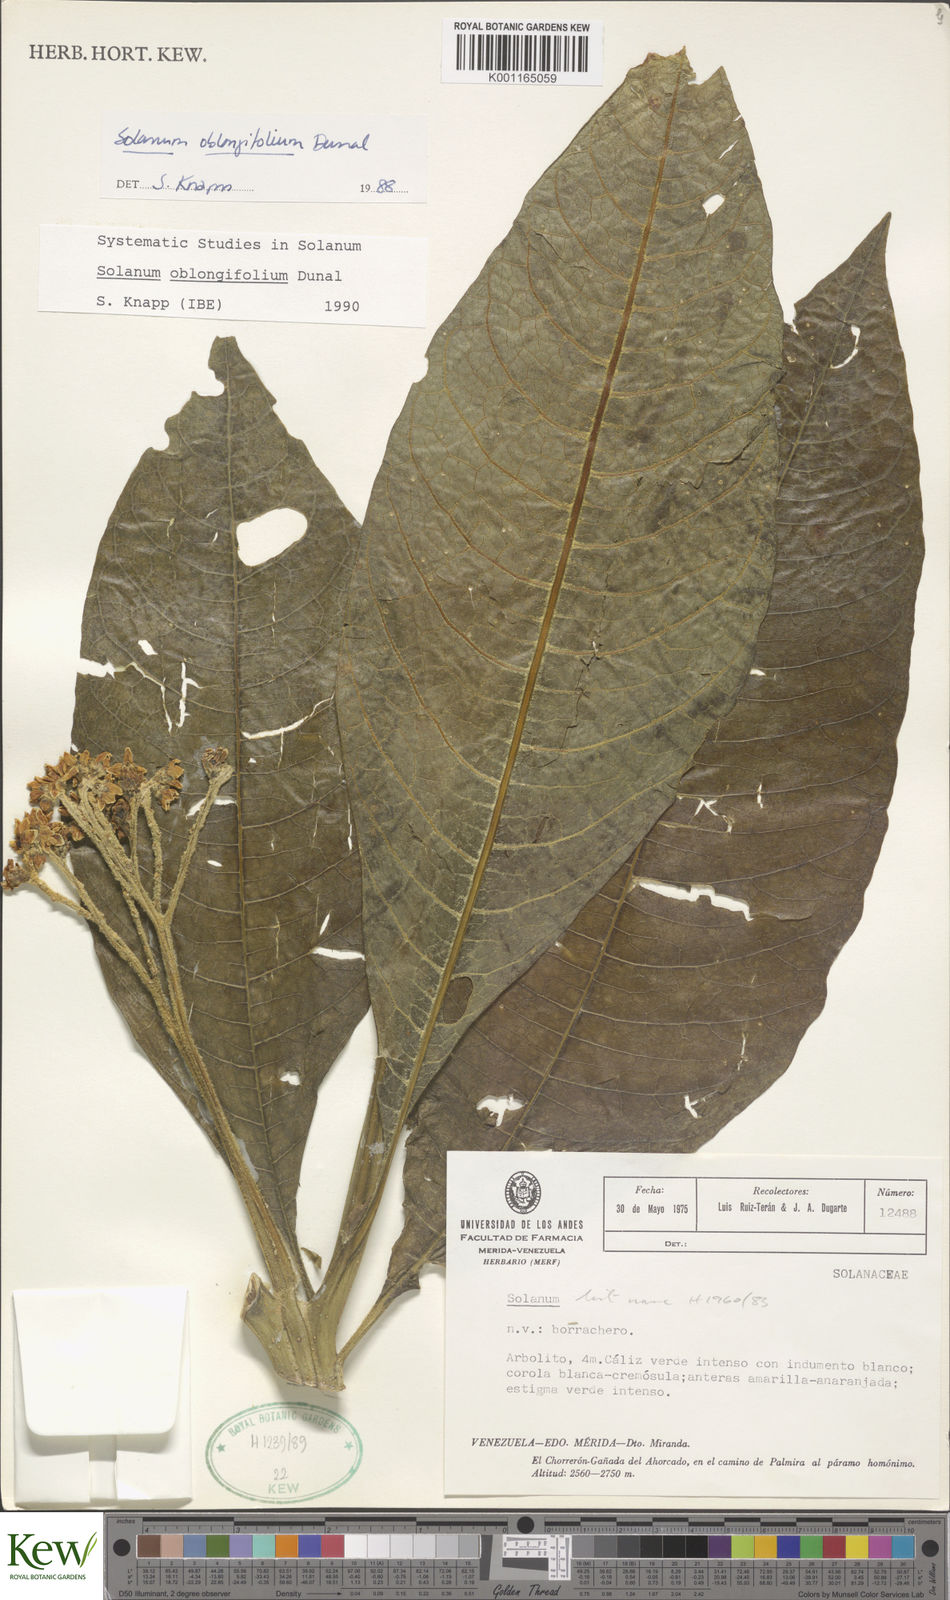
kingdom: Plantae
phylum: Tracheophyta
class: Magnoliopsida
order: Solanales
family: Solanaceae
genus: Solanum
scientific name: Solanum oblongifolium
